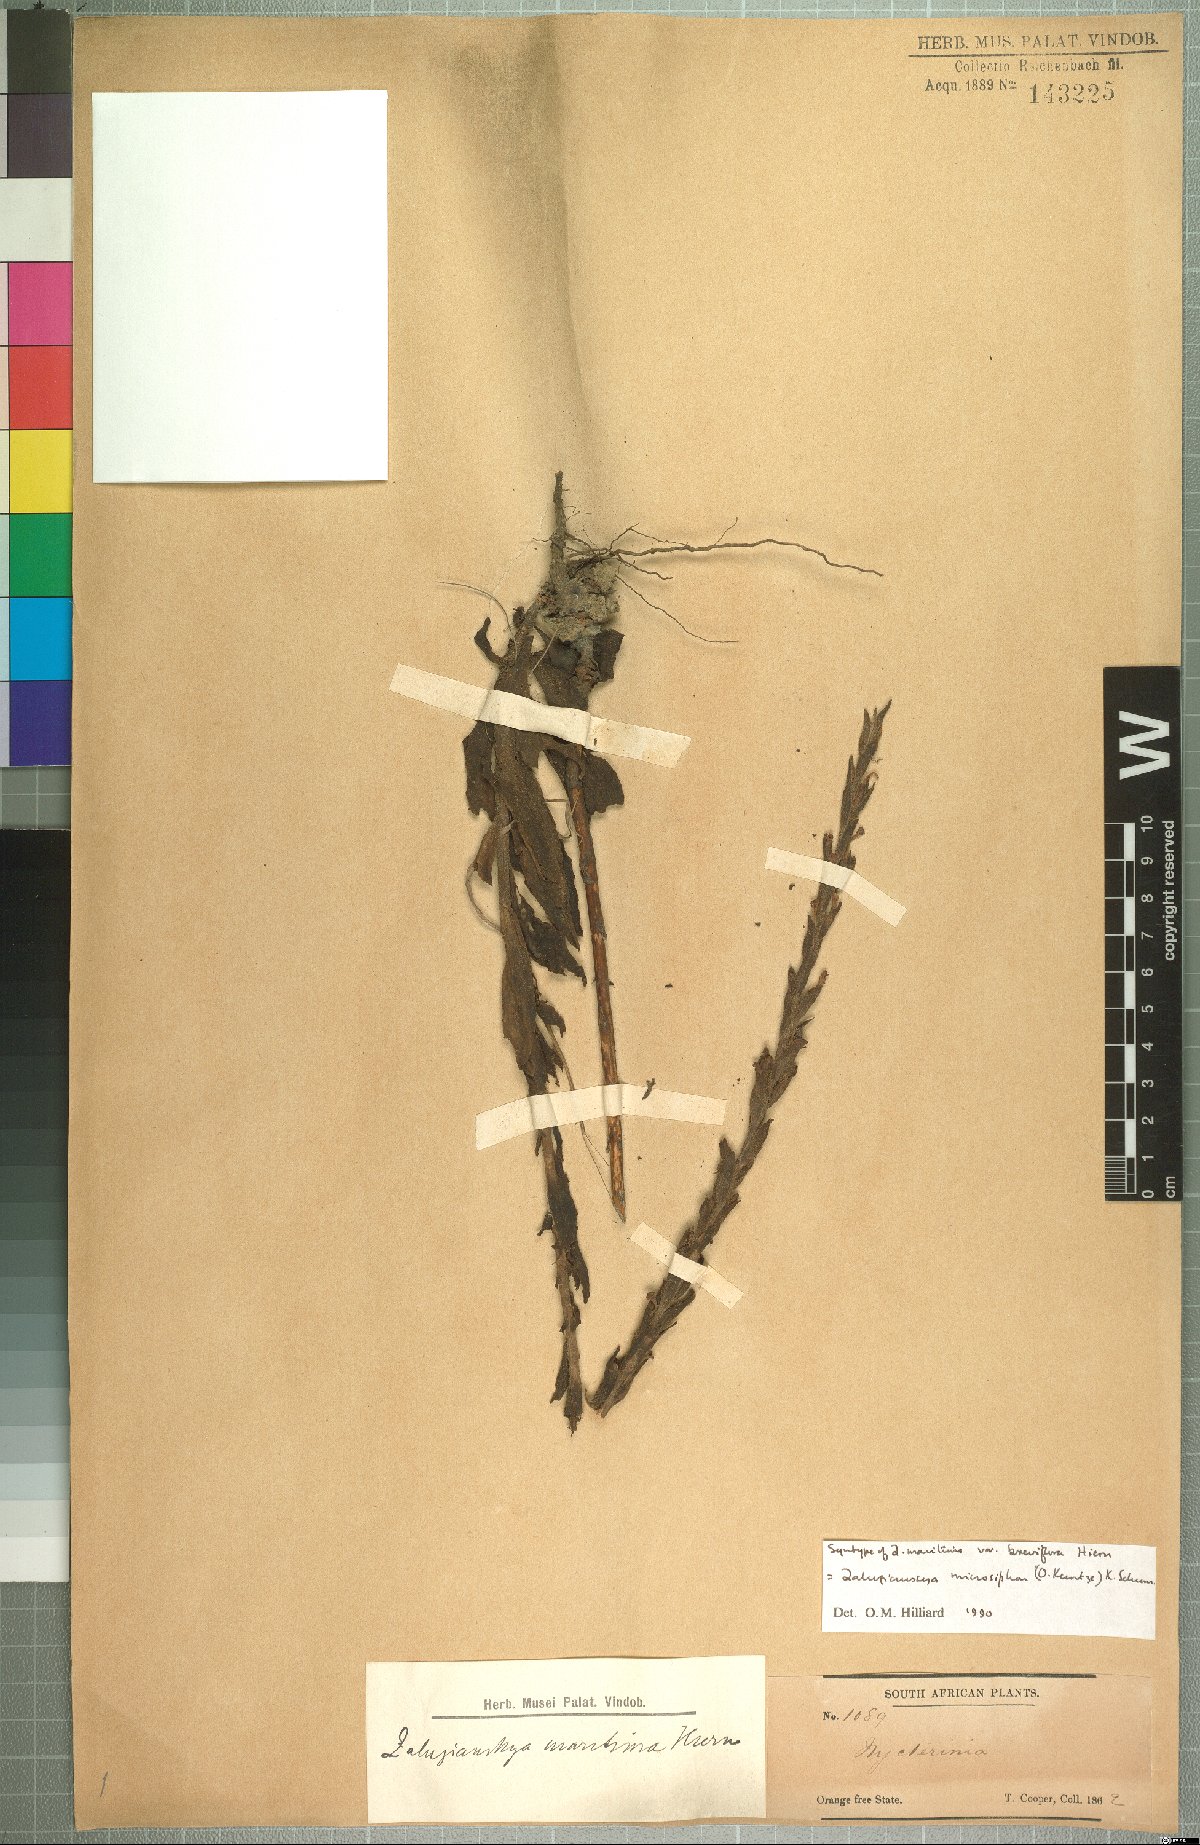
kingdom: Plantae
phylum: Tracheophyta
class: Magnoliopsida
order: Lamiales
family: Scrophulariaceae
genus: Zaluzianskya
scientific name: Zaluzianskya microsiphon
